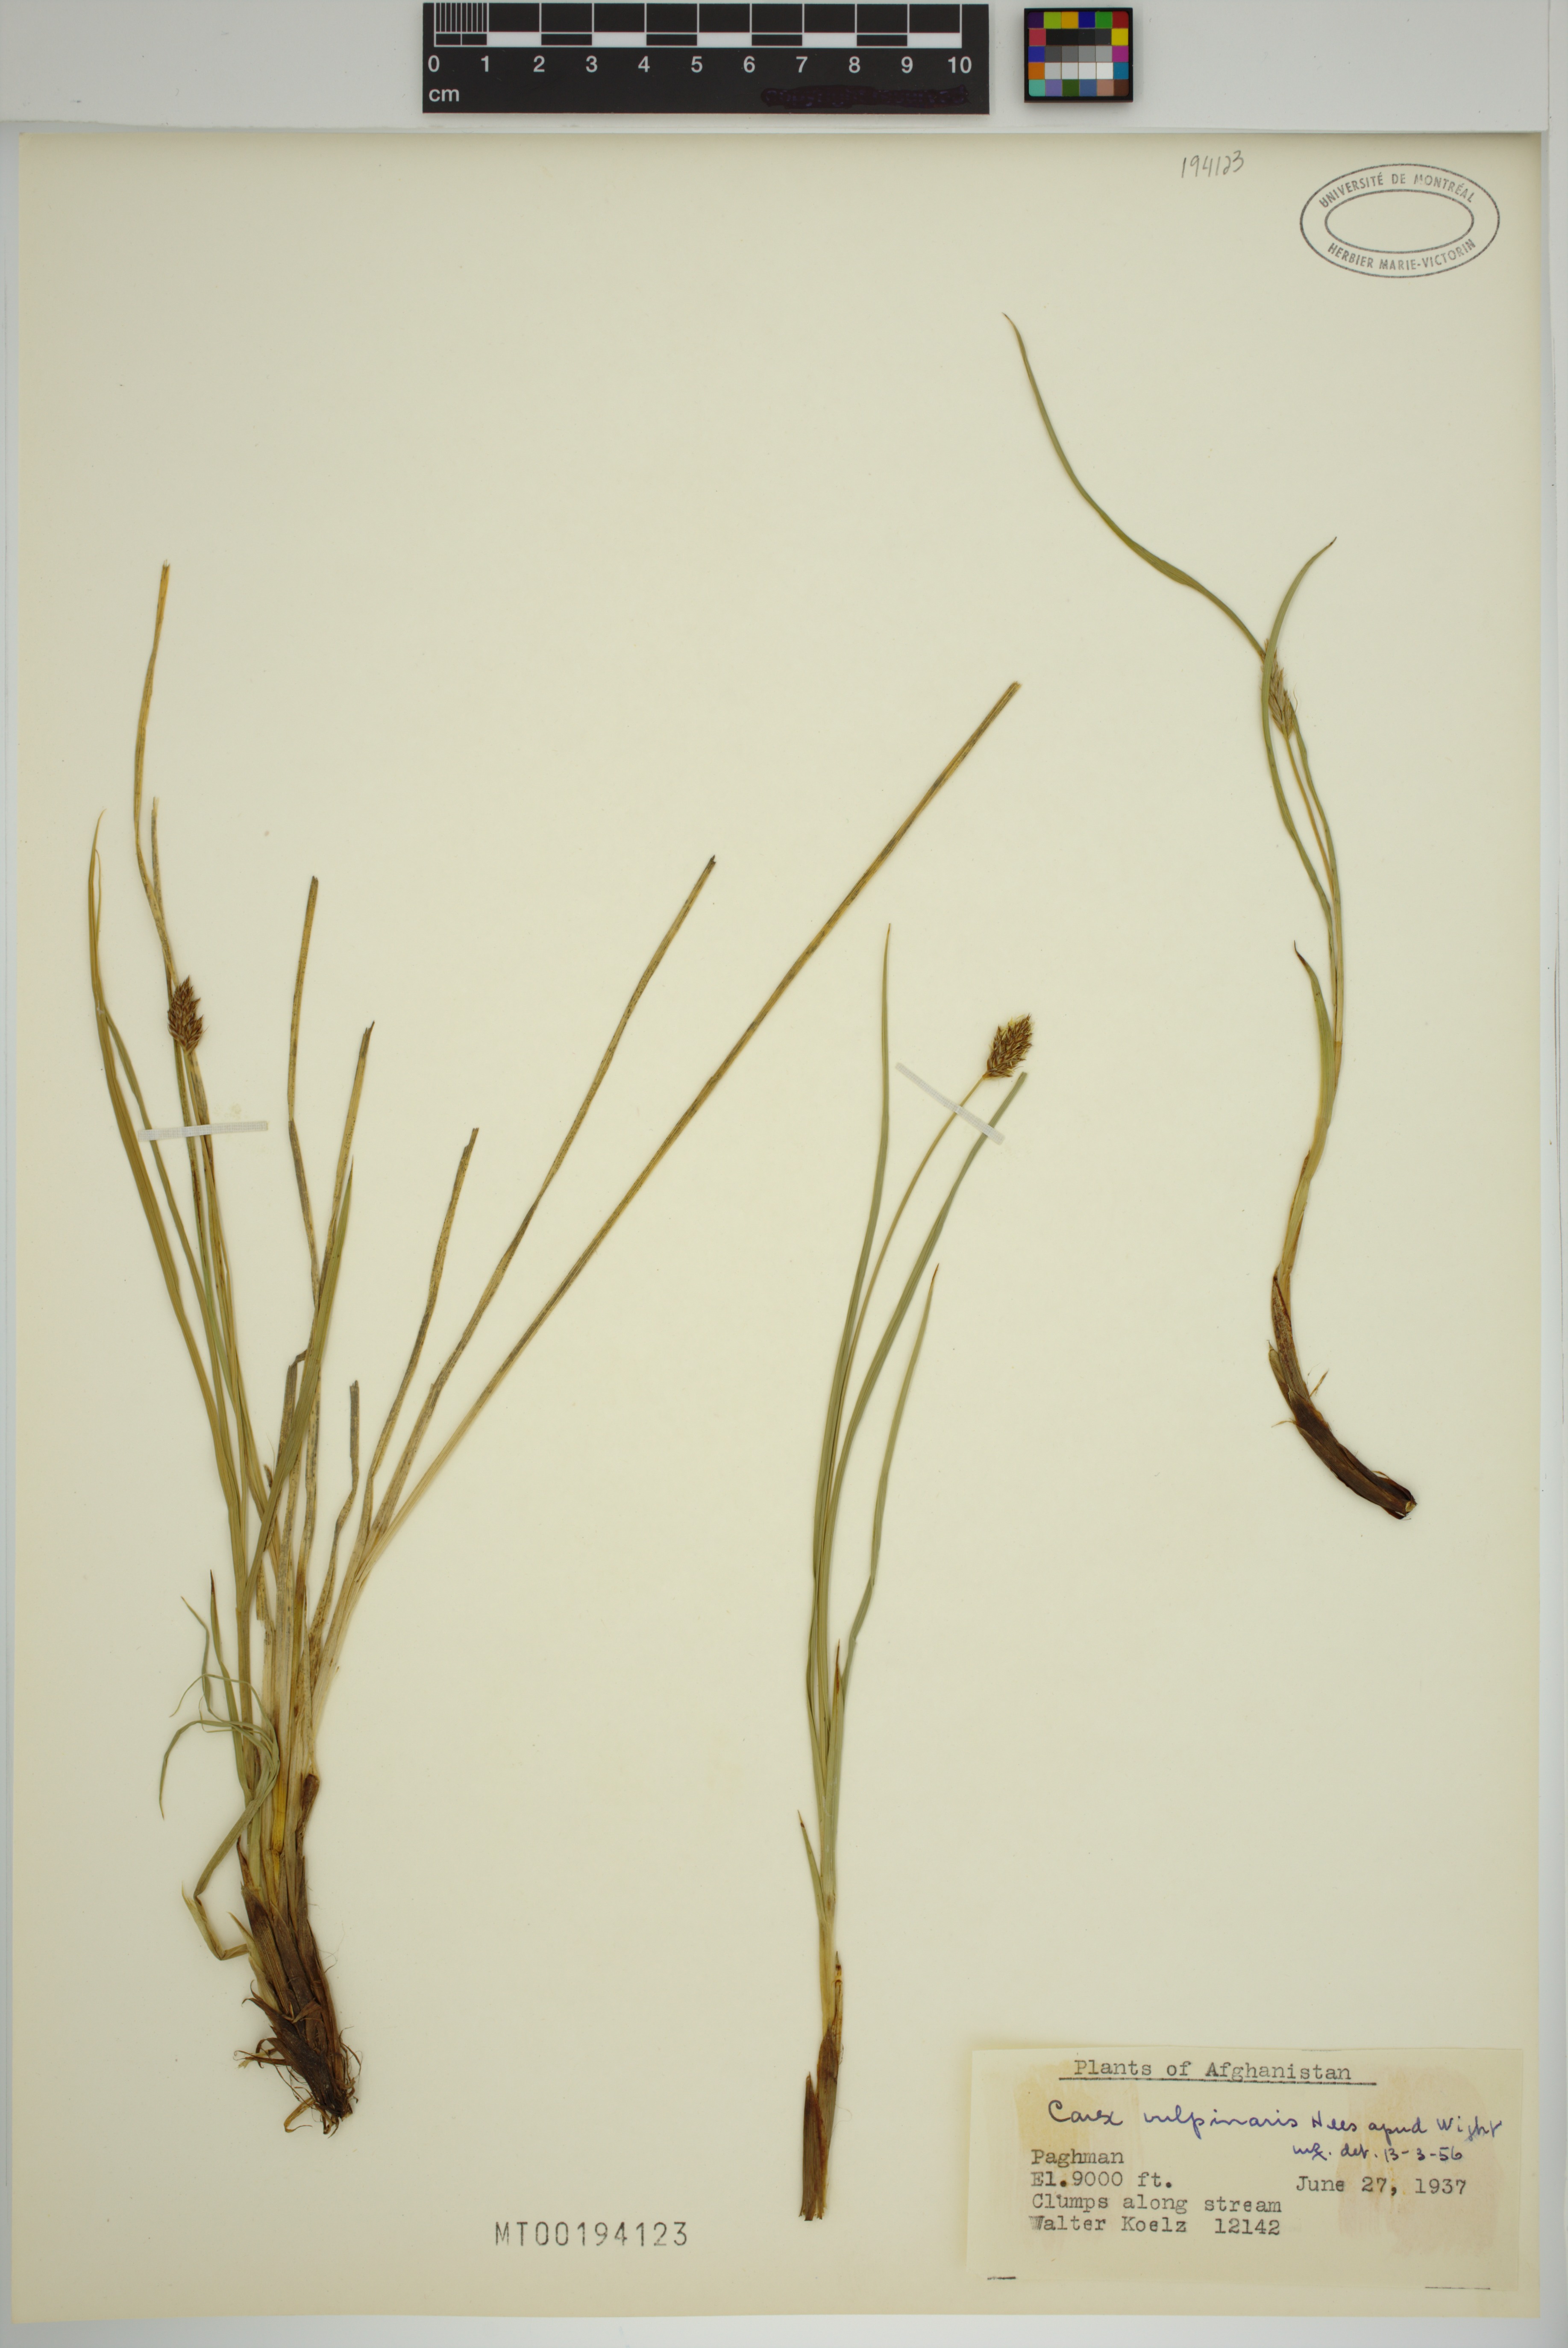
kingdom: Plantae
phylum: Tracheophyta
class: Liliopsida
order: Poales
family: Cyperaceae
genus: Carex
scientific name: Carex vulpinaris
